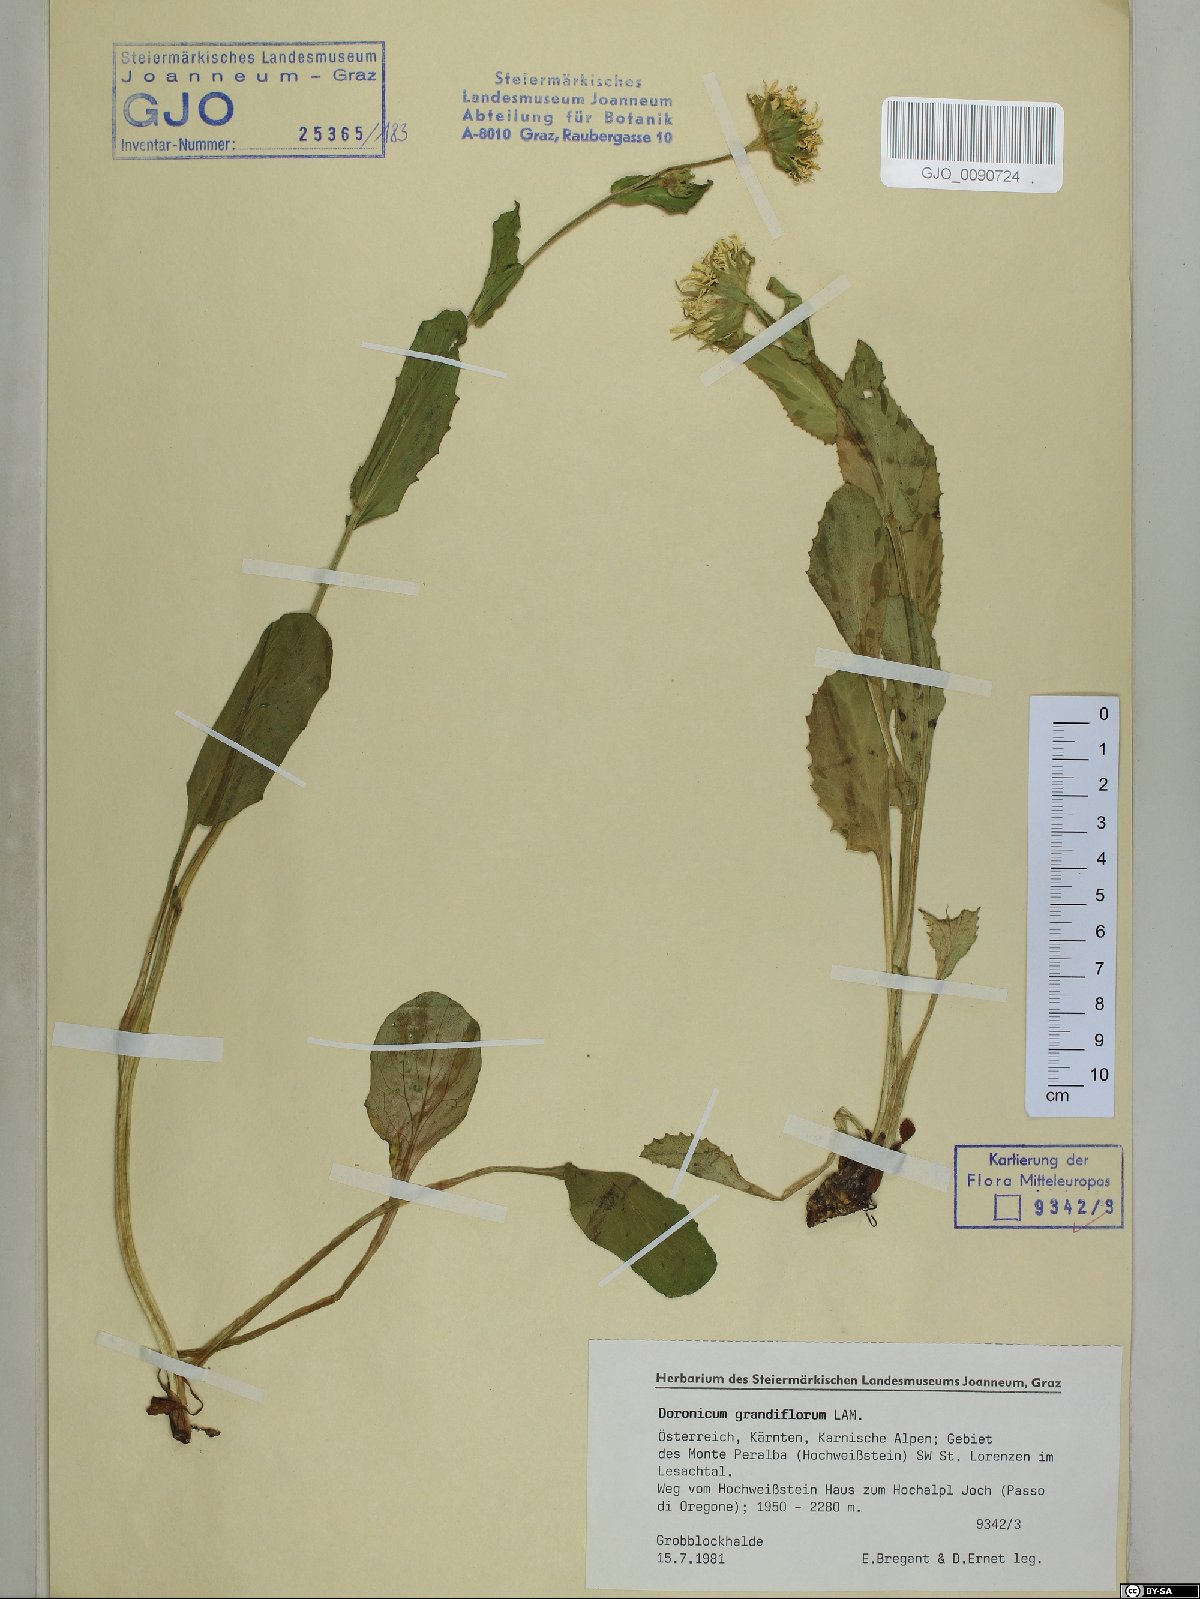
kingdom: Plantae
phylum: Tracheophyta
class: Magnoliopsida
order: Asterales
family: Asteraceae
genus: Doronicum
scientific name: Doronicum grandiflorum
